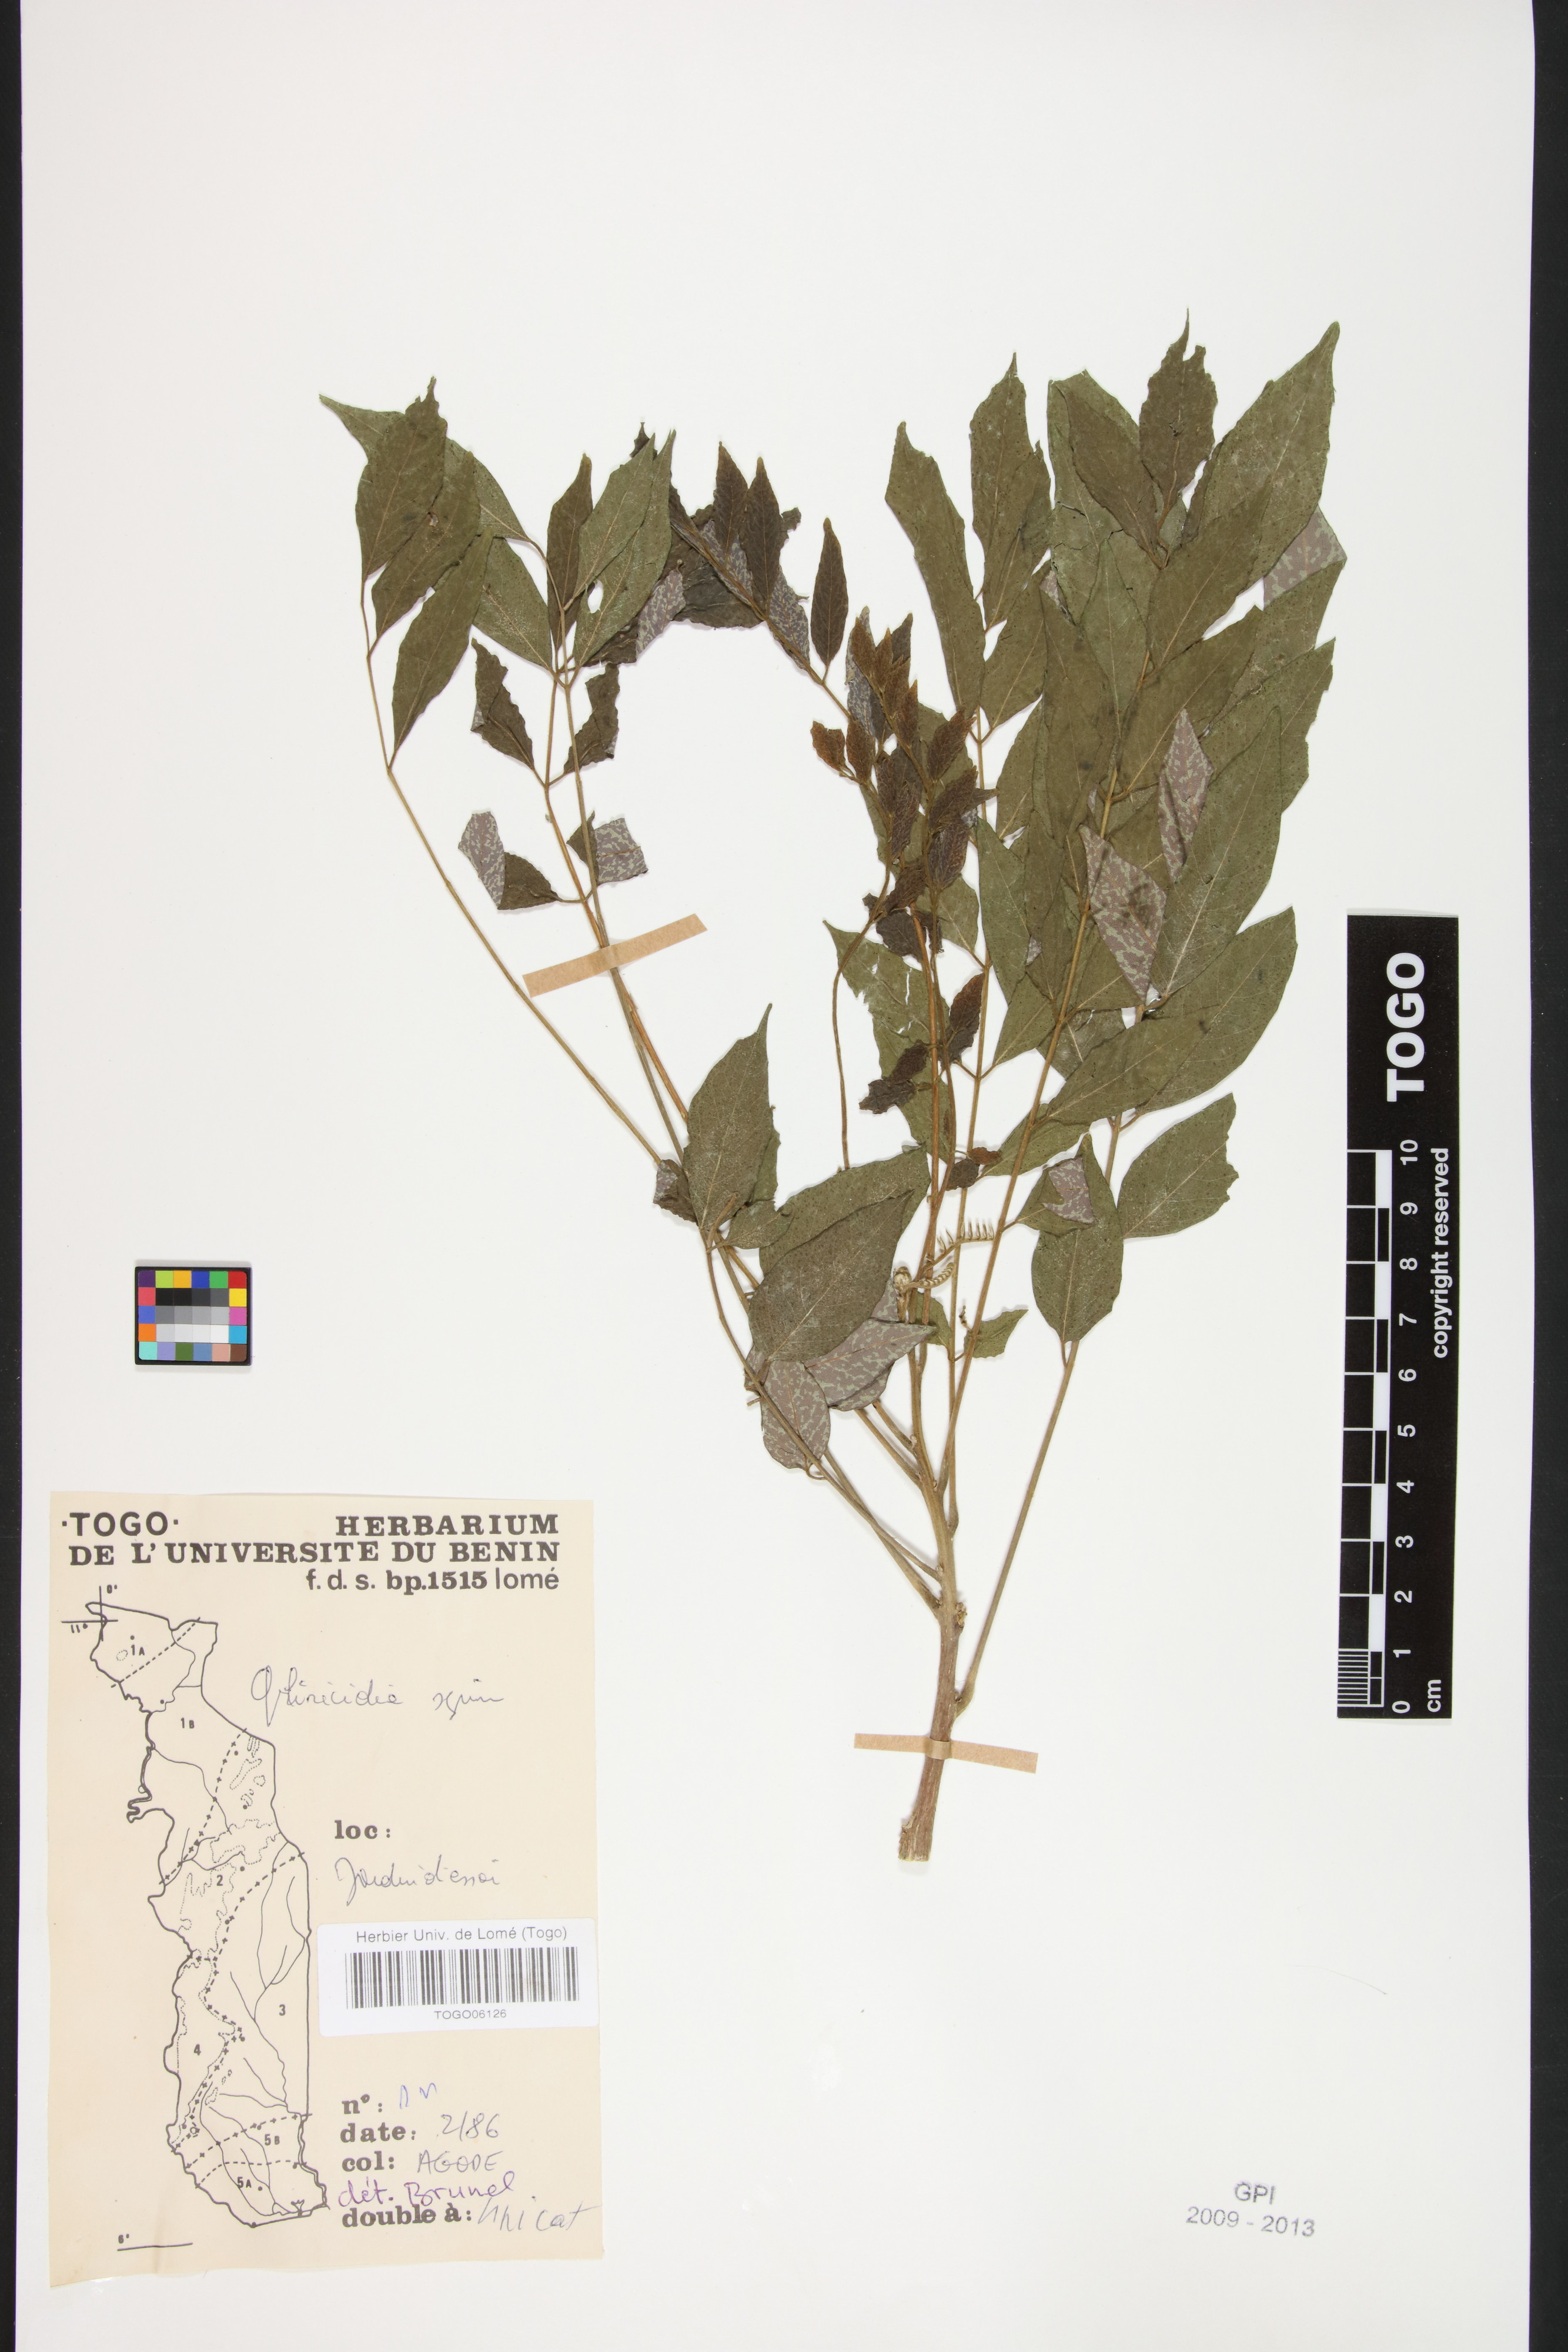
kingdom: Plantae
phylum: Tracheophyta
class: Magnoliopsida
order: Fabales
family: Fabaceae
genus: Gliricidia
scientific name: Gliricidia sepium
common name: Quickstick
